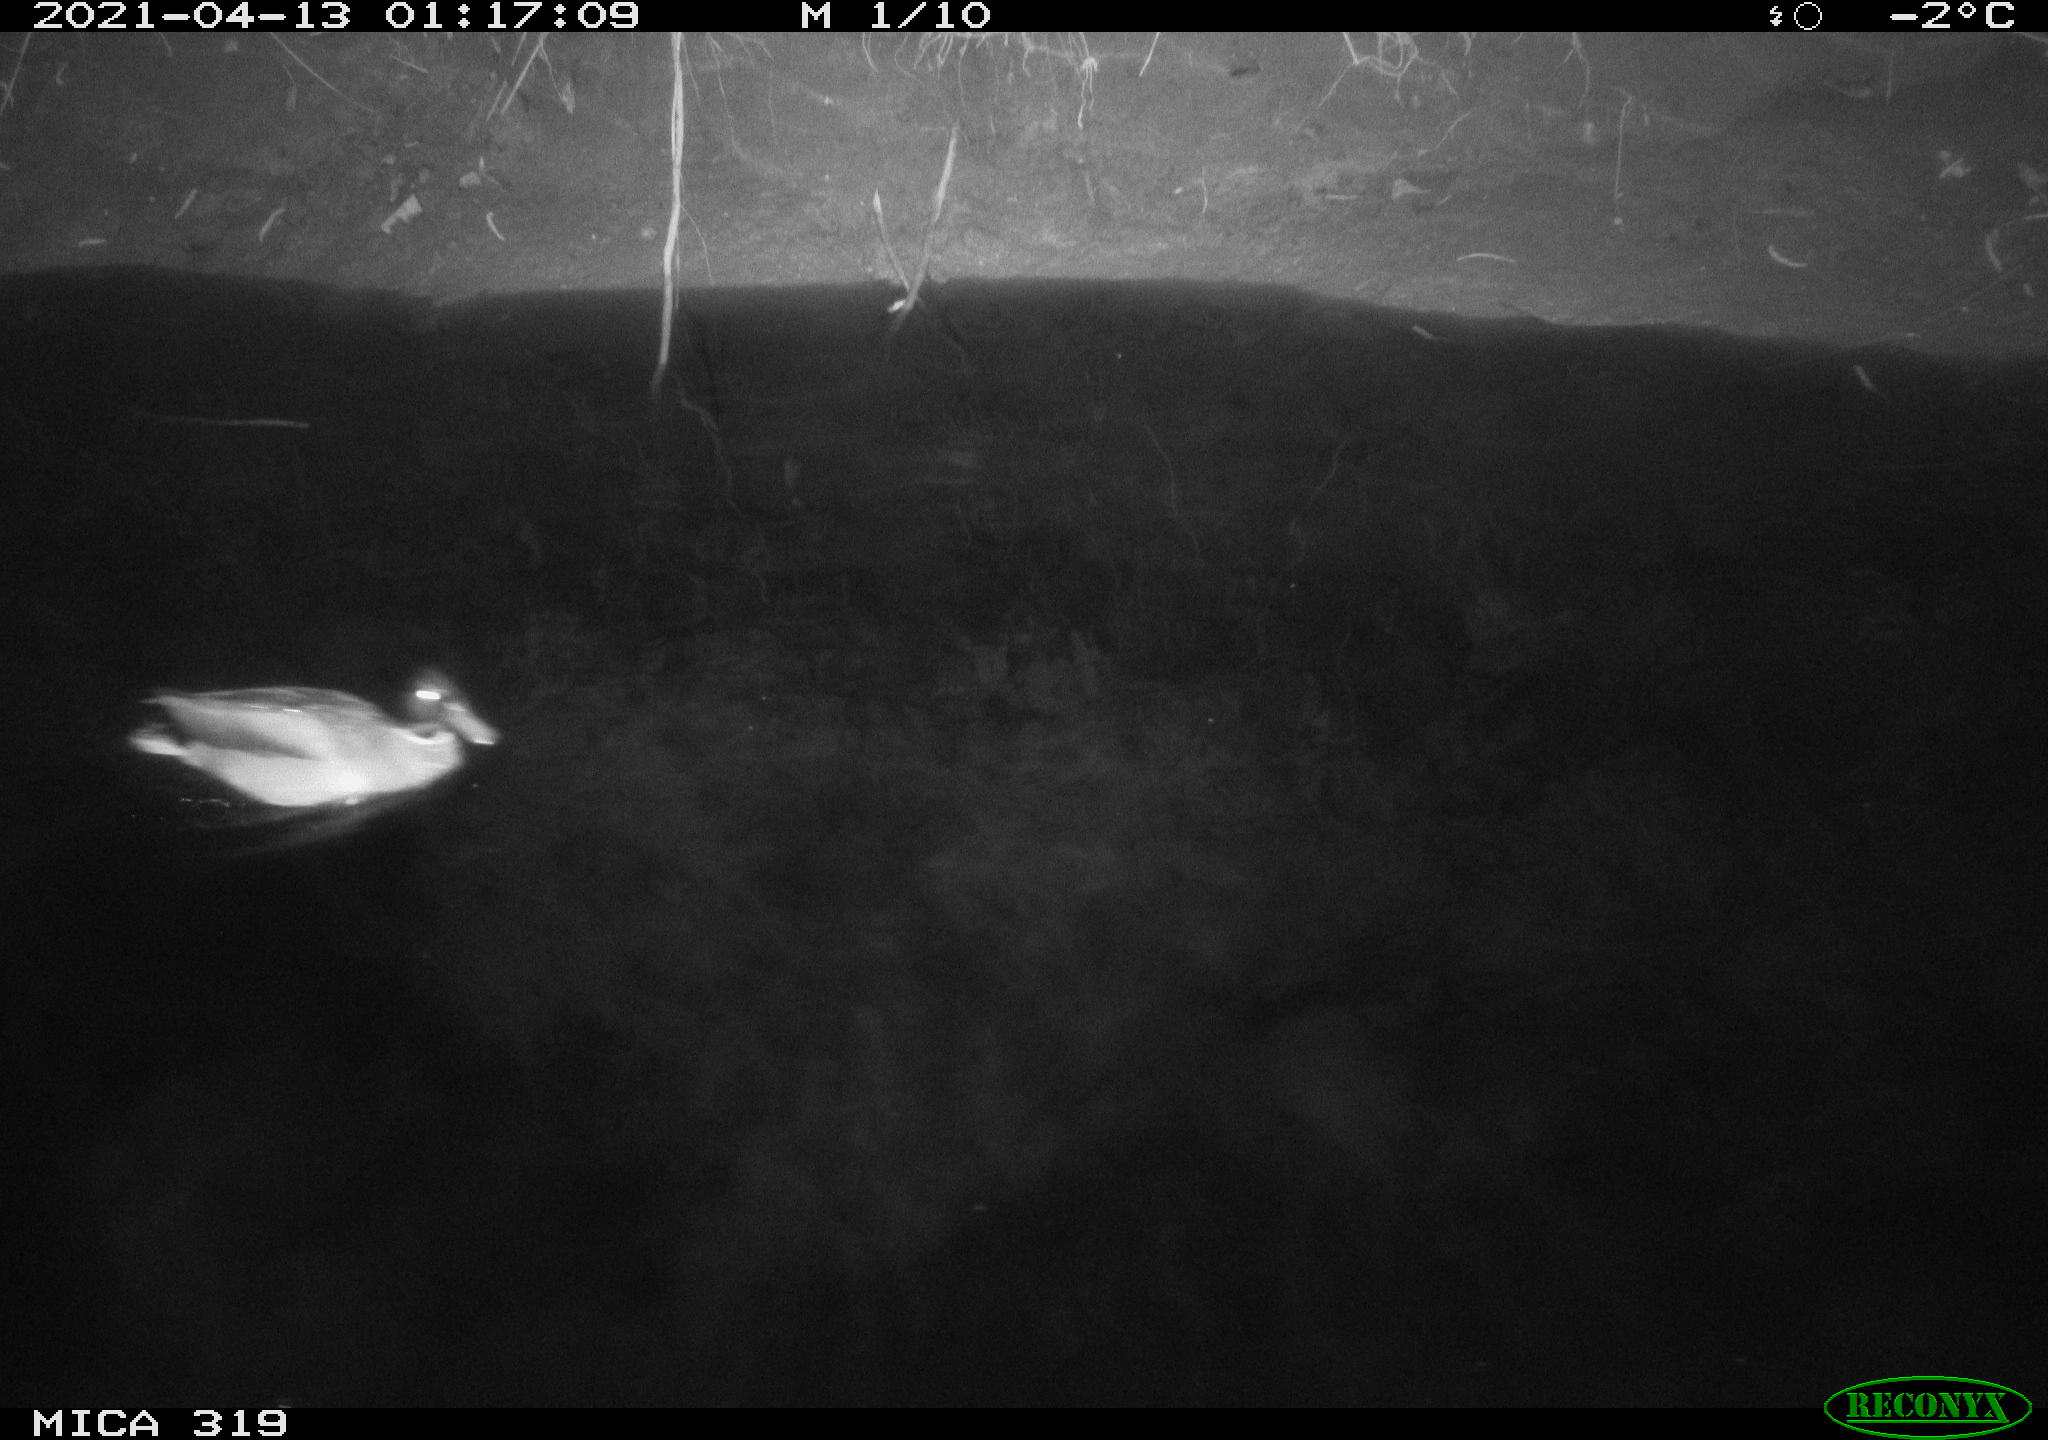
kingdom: Animalia
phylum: Chordata
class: Aves
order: Anseriformes
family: Anatidae
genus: Anas
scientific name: Anas platyrhynchos
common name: Mallard
